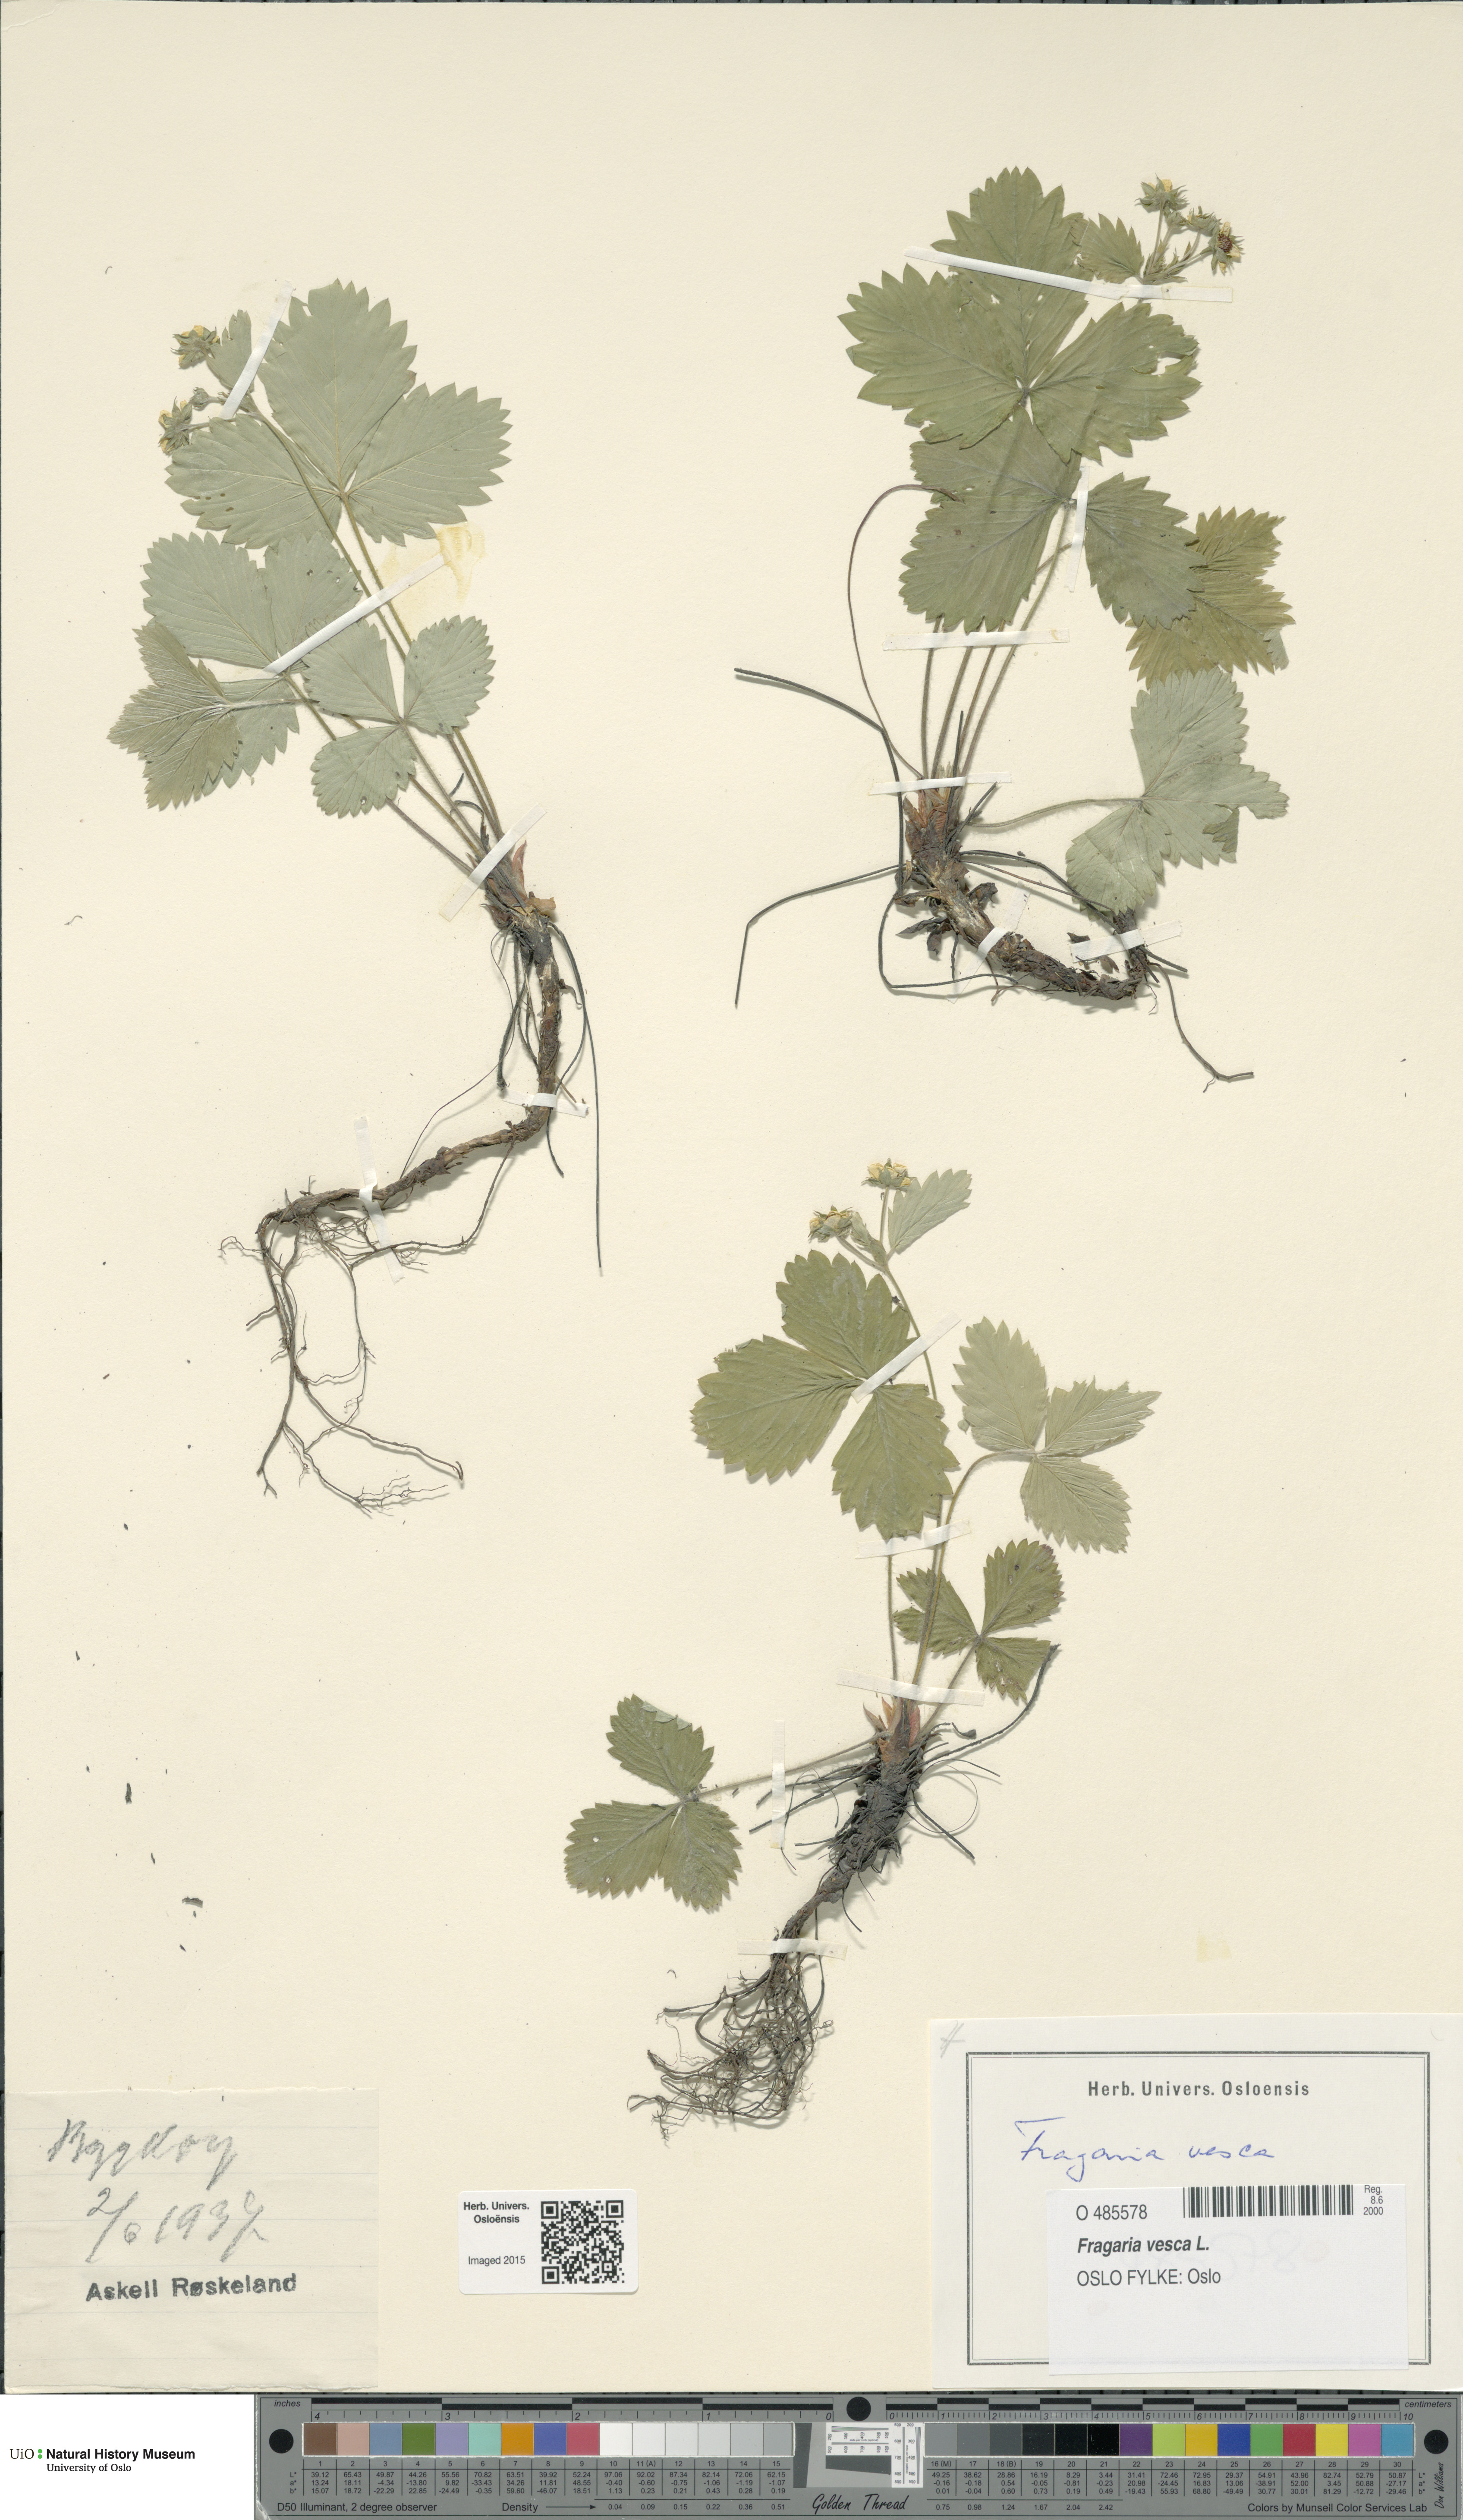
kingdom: Plantae
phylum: Tracheophyta
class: Magnoliopsida
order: Rosales
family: Rosaceae
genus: Fragaria
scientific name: Fragaria vesca
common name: Wild strawberry
